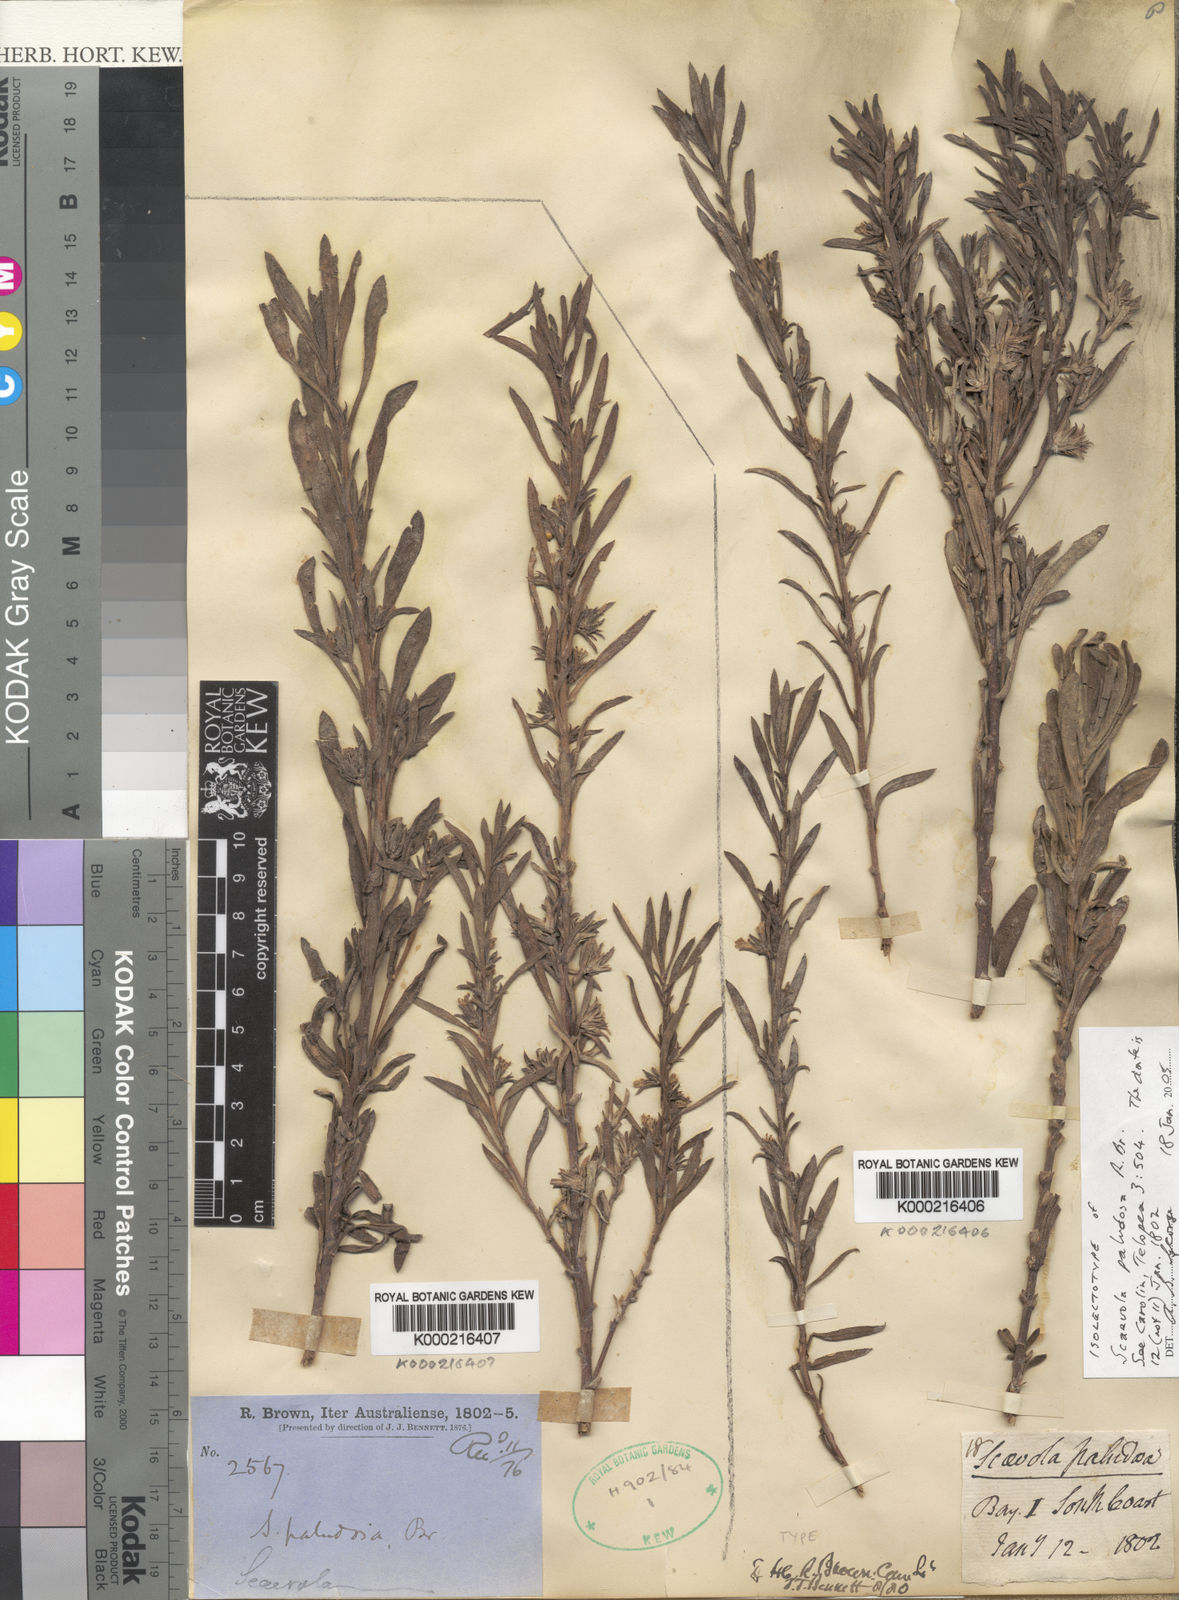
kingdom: Plantae
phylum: Tracheophyta
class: Magnoliopsida
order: Asterales
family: Goodeniaceae
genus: Scaevola
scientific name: Scaevola paludosa
